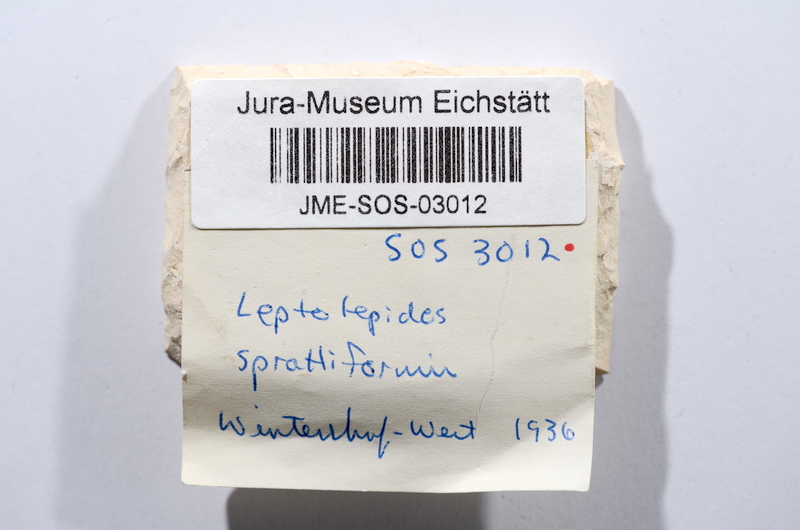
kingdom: Animalia
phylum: Chordata
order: Salmoniformes
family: Orthogonikleithridae
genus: Leptolepides
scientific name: Leptolepides sprattiformis
